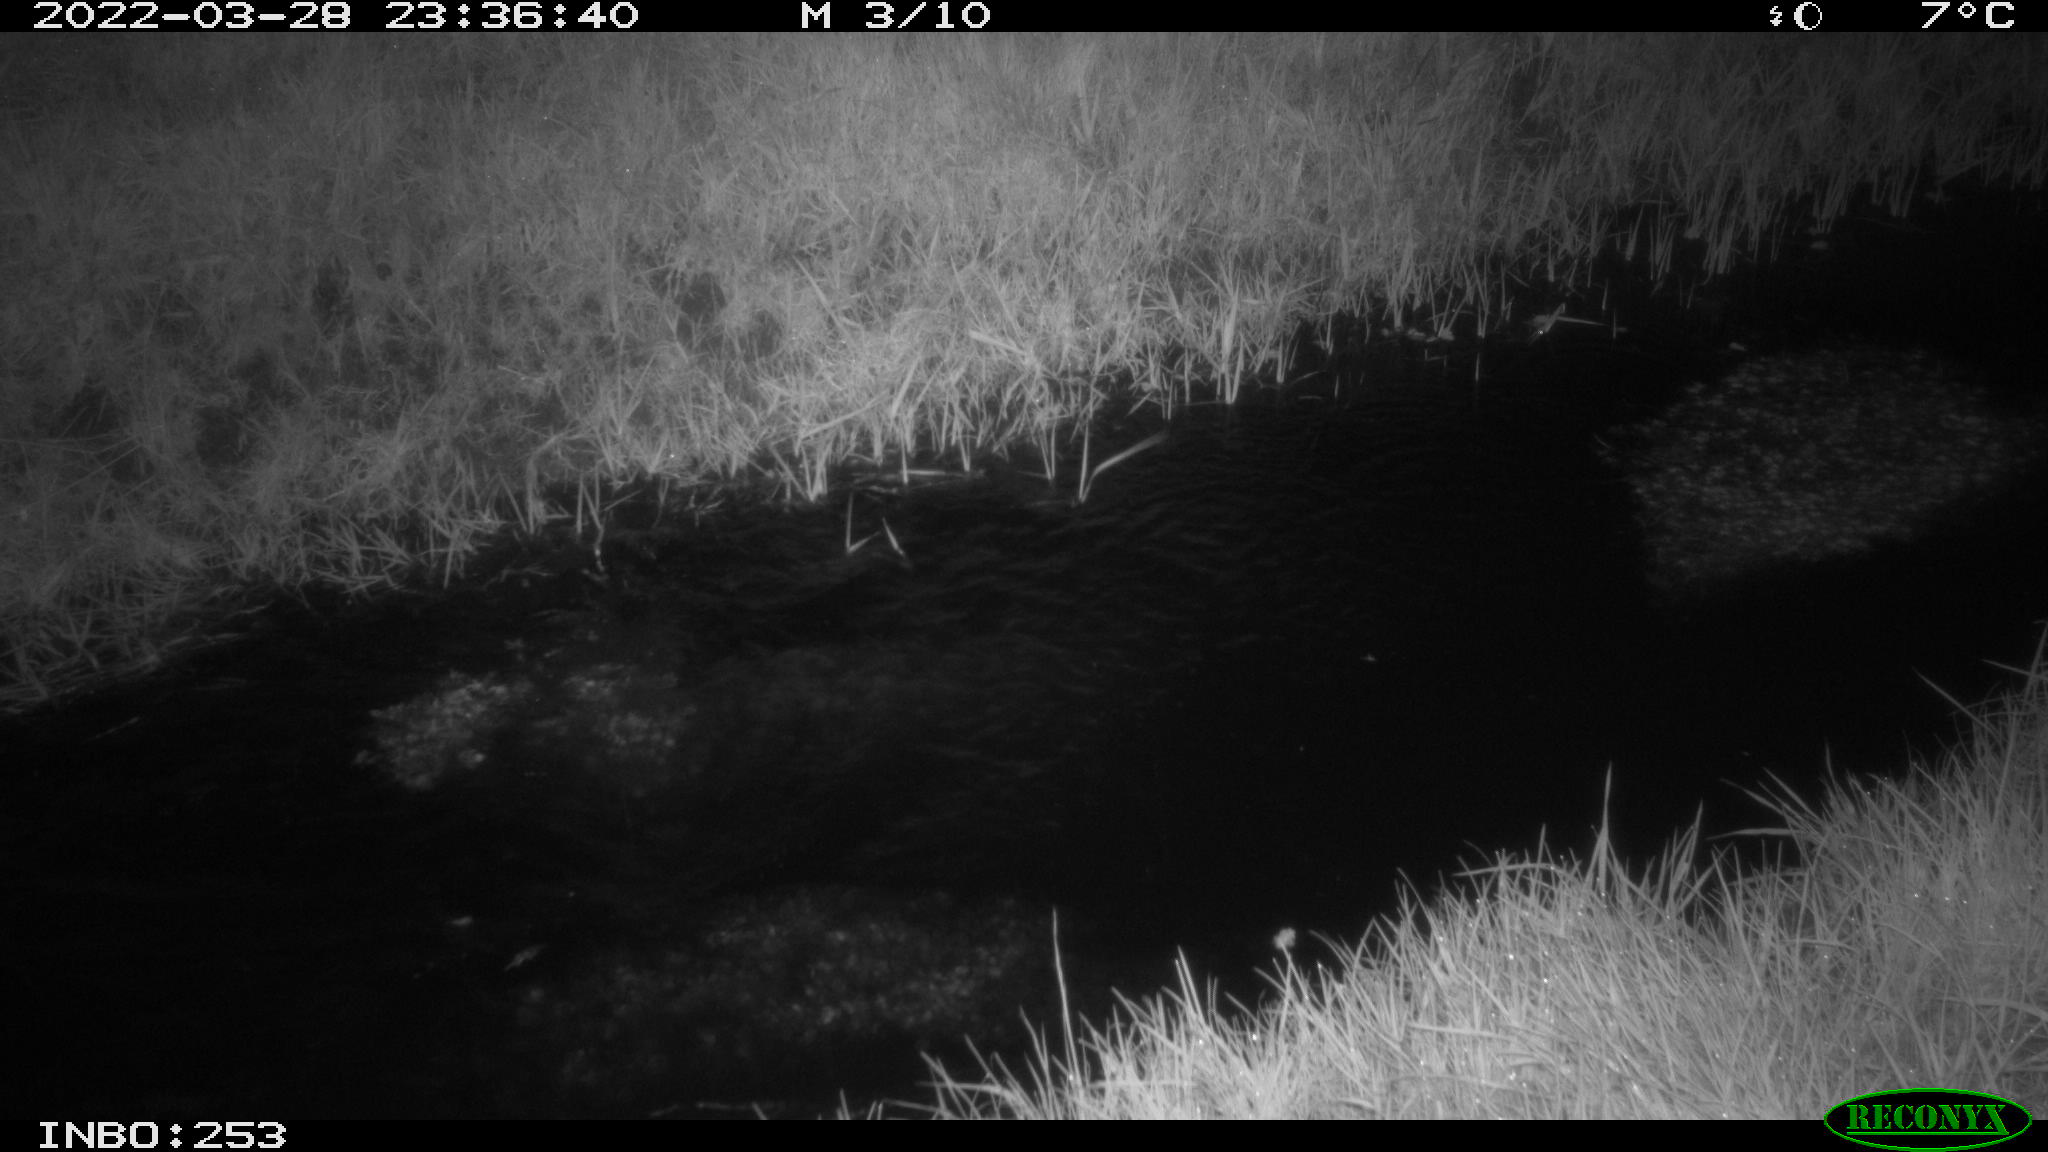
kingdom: Animalia
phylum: Chordata
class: Aves
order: Anseriformes
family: Anatidae
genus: Anas
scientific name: Anas platyrhynchos
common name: Mallard
